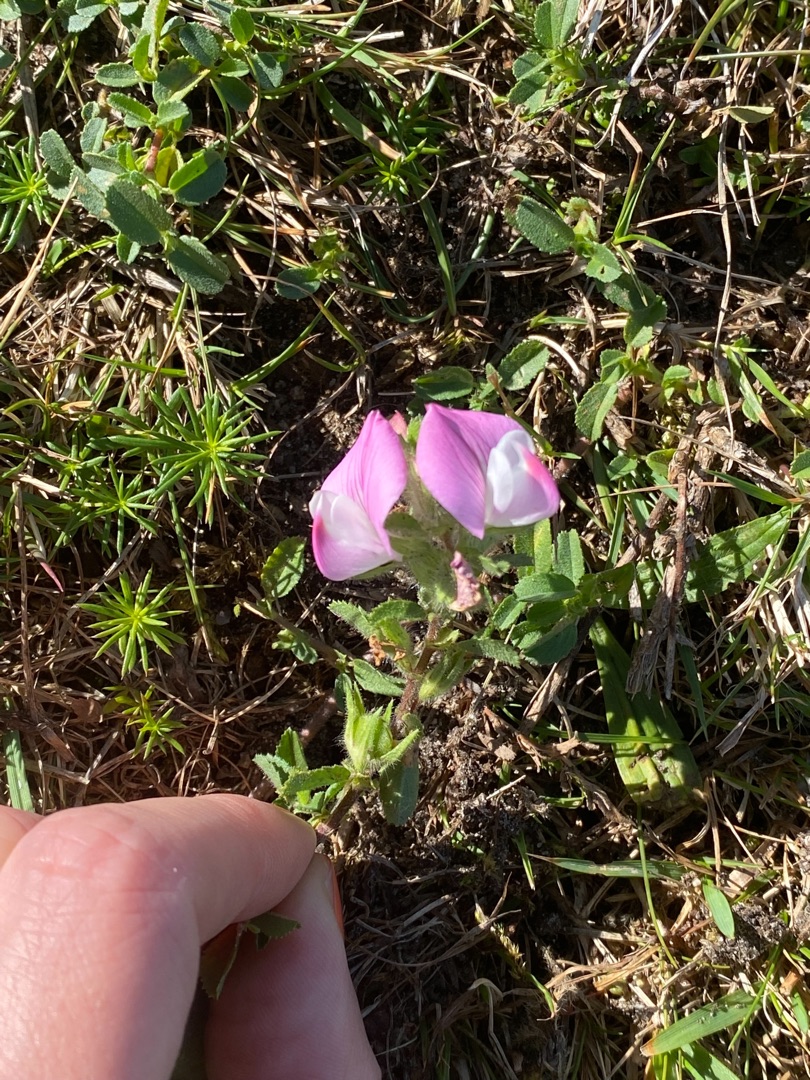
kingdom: Plantae
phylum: Tracheophyta
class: Magnoliopsida
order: Fabales
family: Fabaceae
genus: Ononis
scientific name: Ononis spinosa
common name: Krageklo
